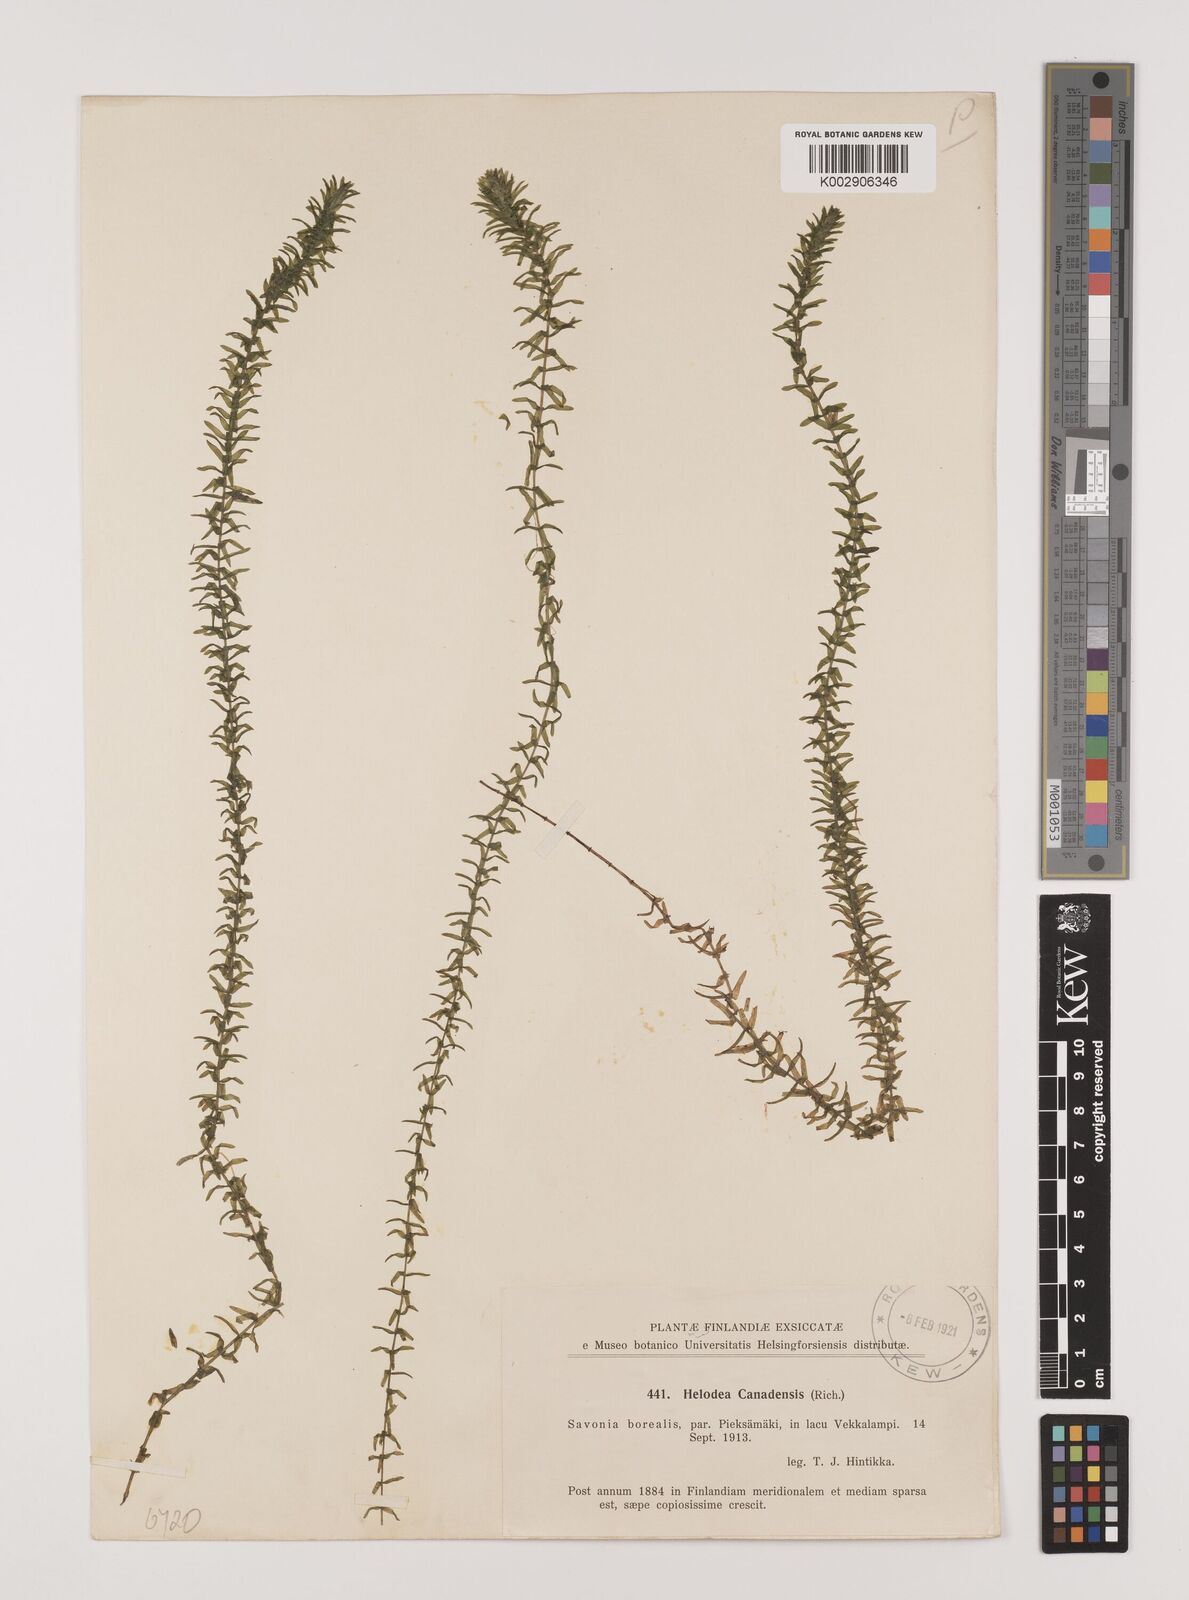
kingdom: Plantae
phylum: Tracheophyta
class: Liliopsida
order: Alismatales
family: Hydrocharitaceae
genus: Elodea
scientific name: Elodea canadensis
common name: Canadian waterweed
